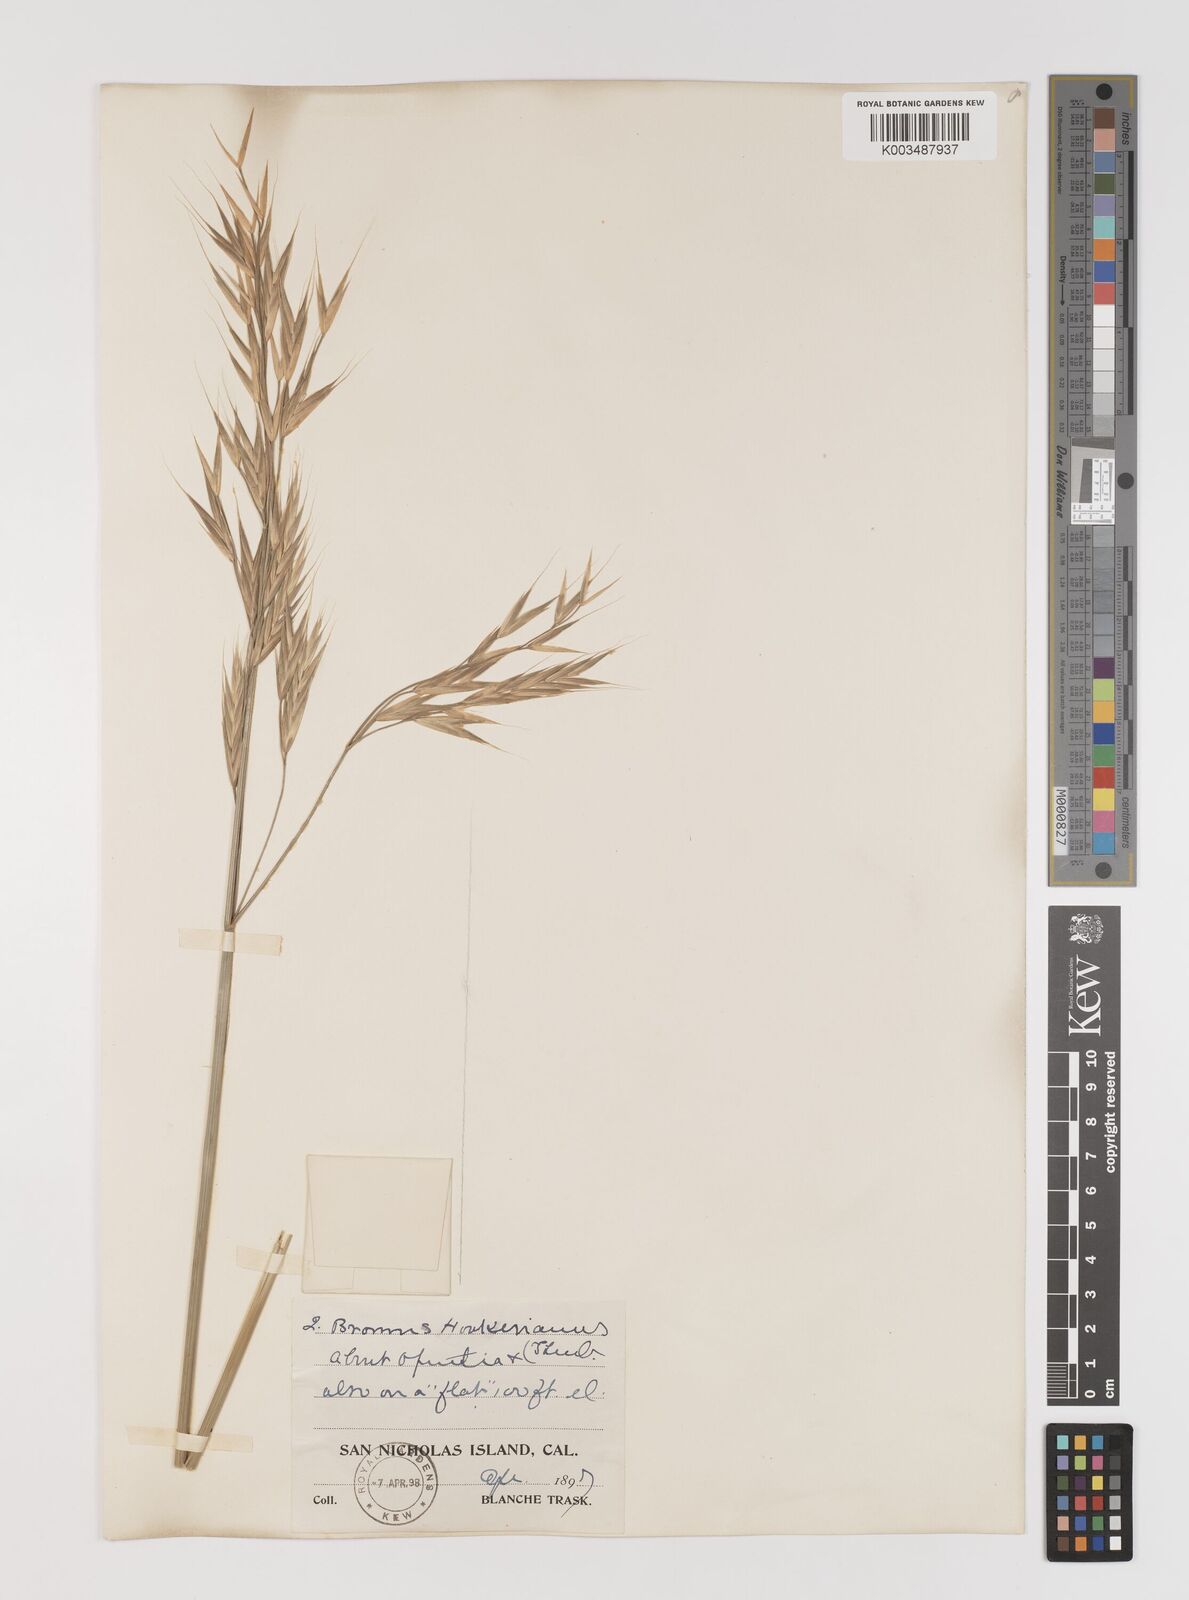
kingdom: Plantae
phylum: Tracheophyta
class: Liliopsida
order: Poales
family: Poaceae
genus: Bromus
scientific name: Bromus carinatus
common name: Mountain brome
